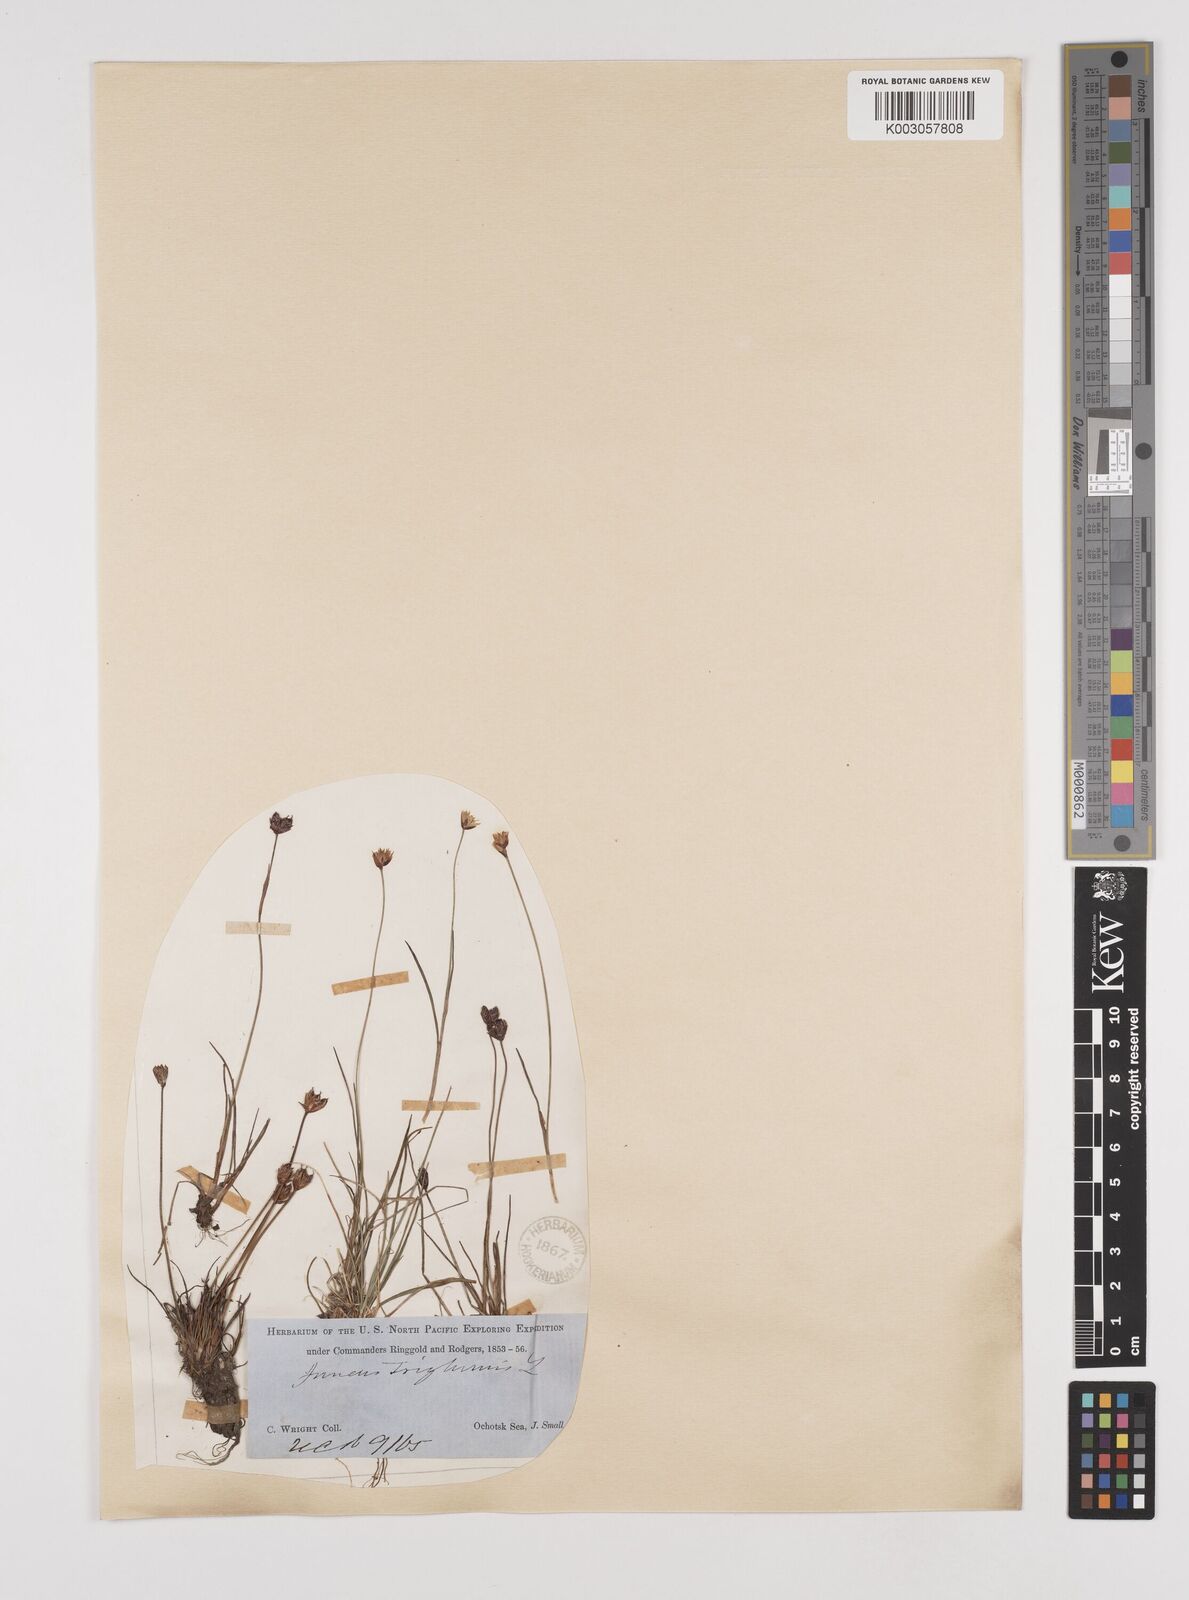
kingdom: Plantae
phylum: Tracheophyta
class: Liliopsida
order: Poales
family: Juncaceae
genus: Juncus
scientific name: Juncus triglumis
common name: Three-flowered rush
